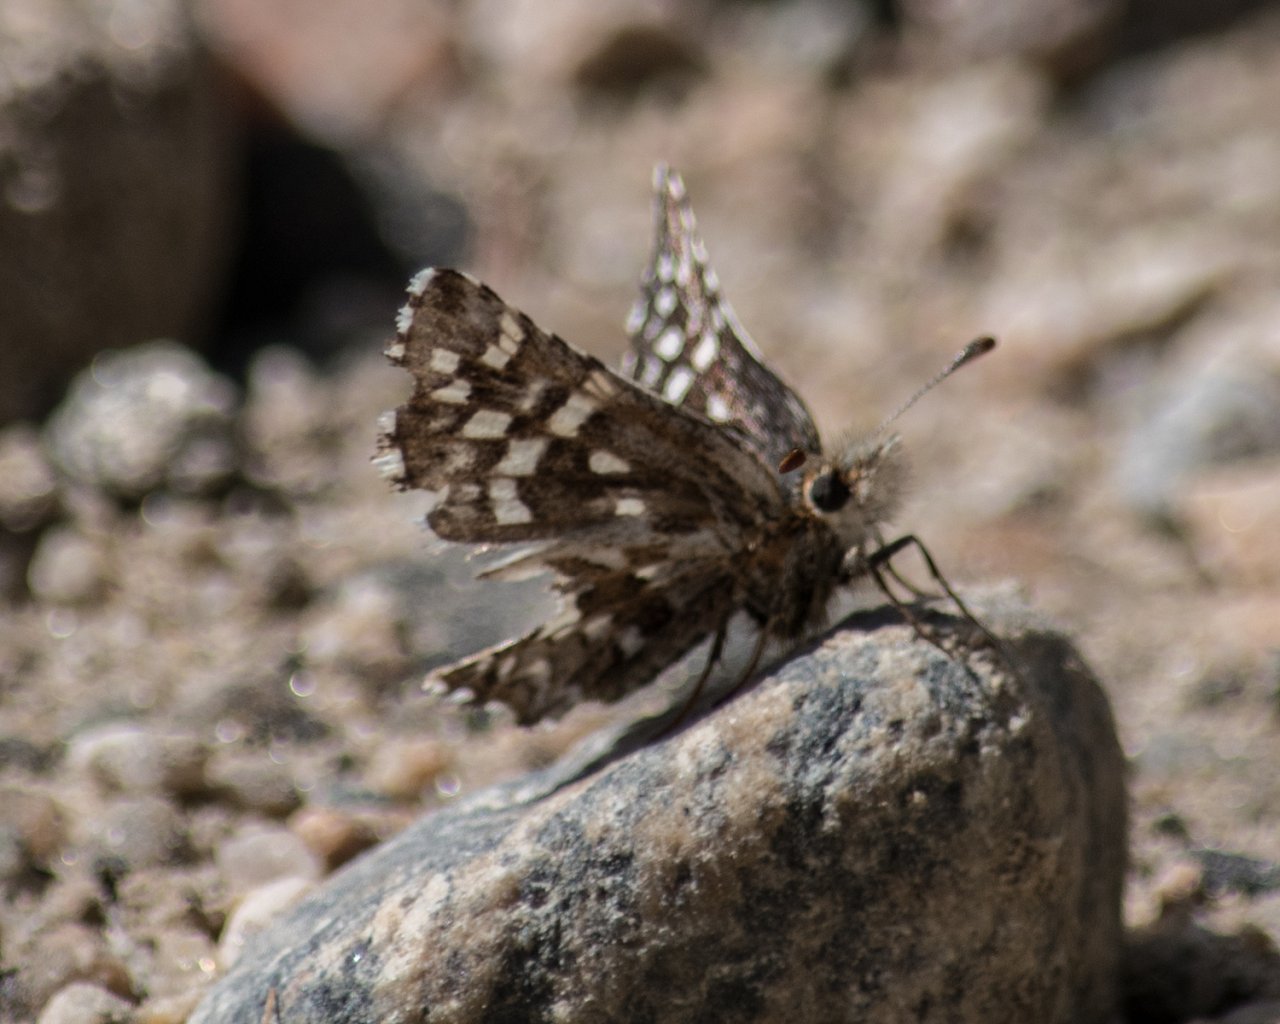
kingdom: Animalia
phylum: Arthropoda
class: Insecta
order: Lepidoptera
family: Hesperiidae
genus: Pyrgus
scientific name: Pyrgus ruralis
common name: Two-banded Checkered-Skipper
